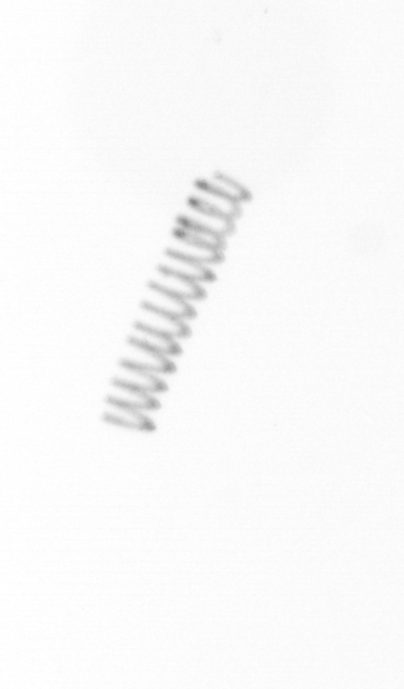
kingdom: Chromista
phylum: Ochrophyta
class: Bacillariophyceae
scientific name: Bacillariophyceae
